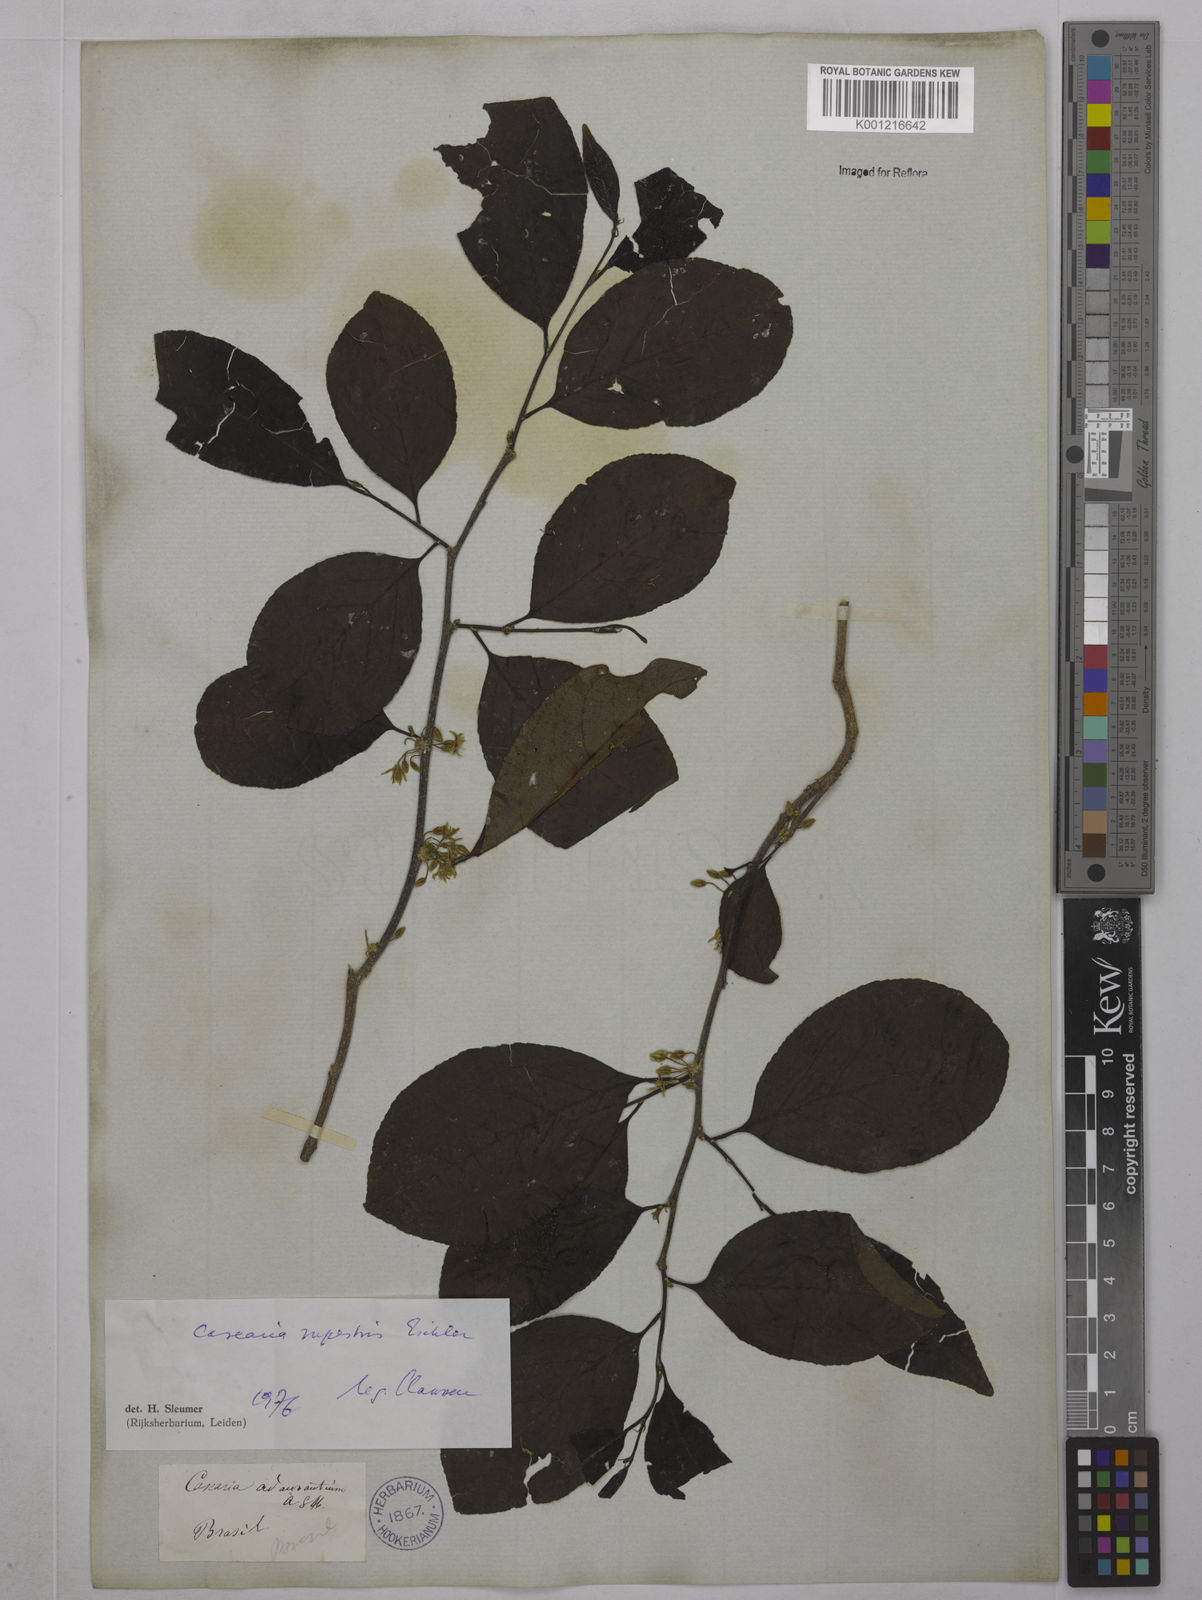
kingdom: Plantae
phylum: Tracheophyta
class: Magnoliopsida
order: Malpighiales
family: Salicaceae
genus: Casearia
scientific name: Casearia rupestris
